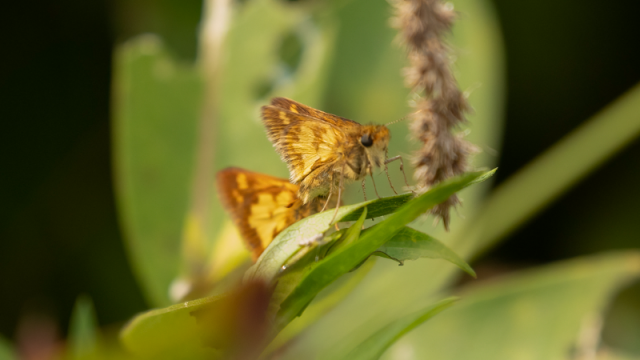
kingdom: Animalia
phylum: Arthropoda
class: Insecta
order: Lepidoptera
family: Hesperiidae
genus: Polites
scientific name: Polites coras
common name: Peck's Skipper
